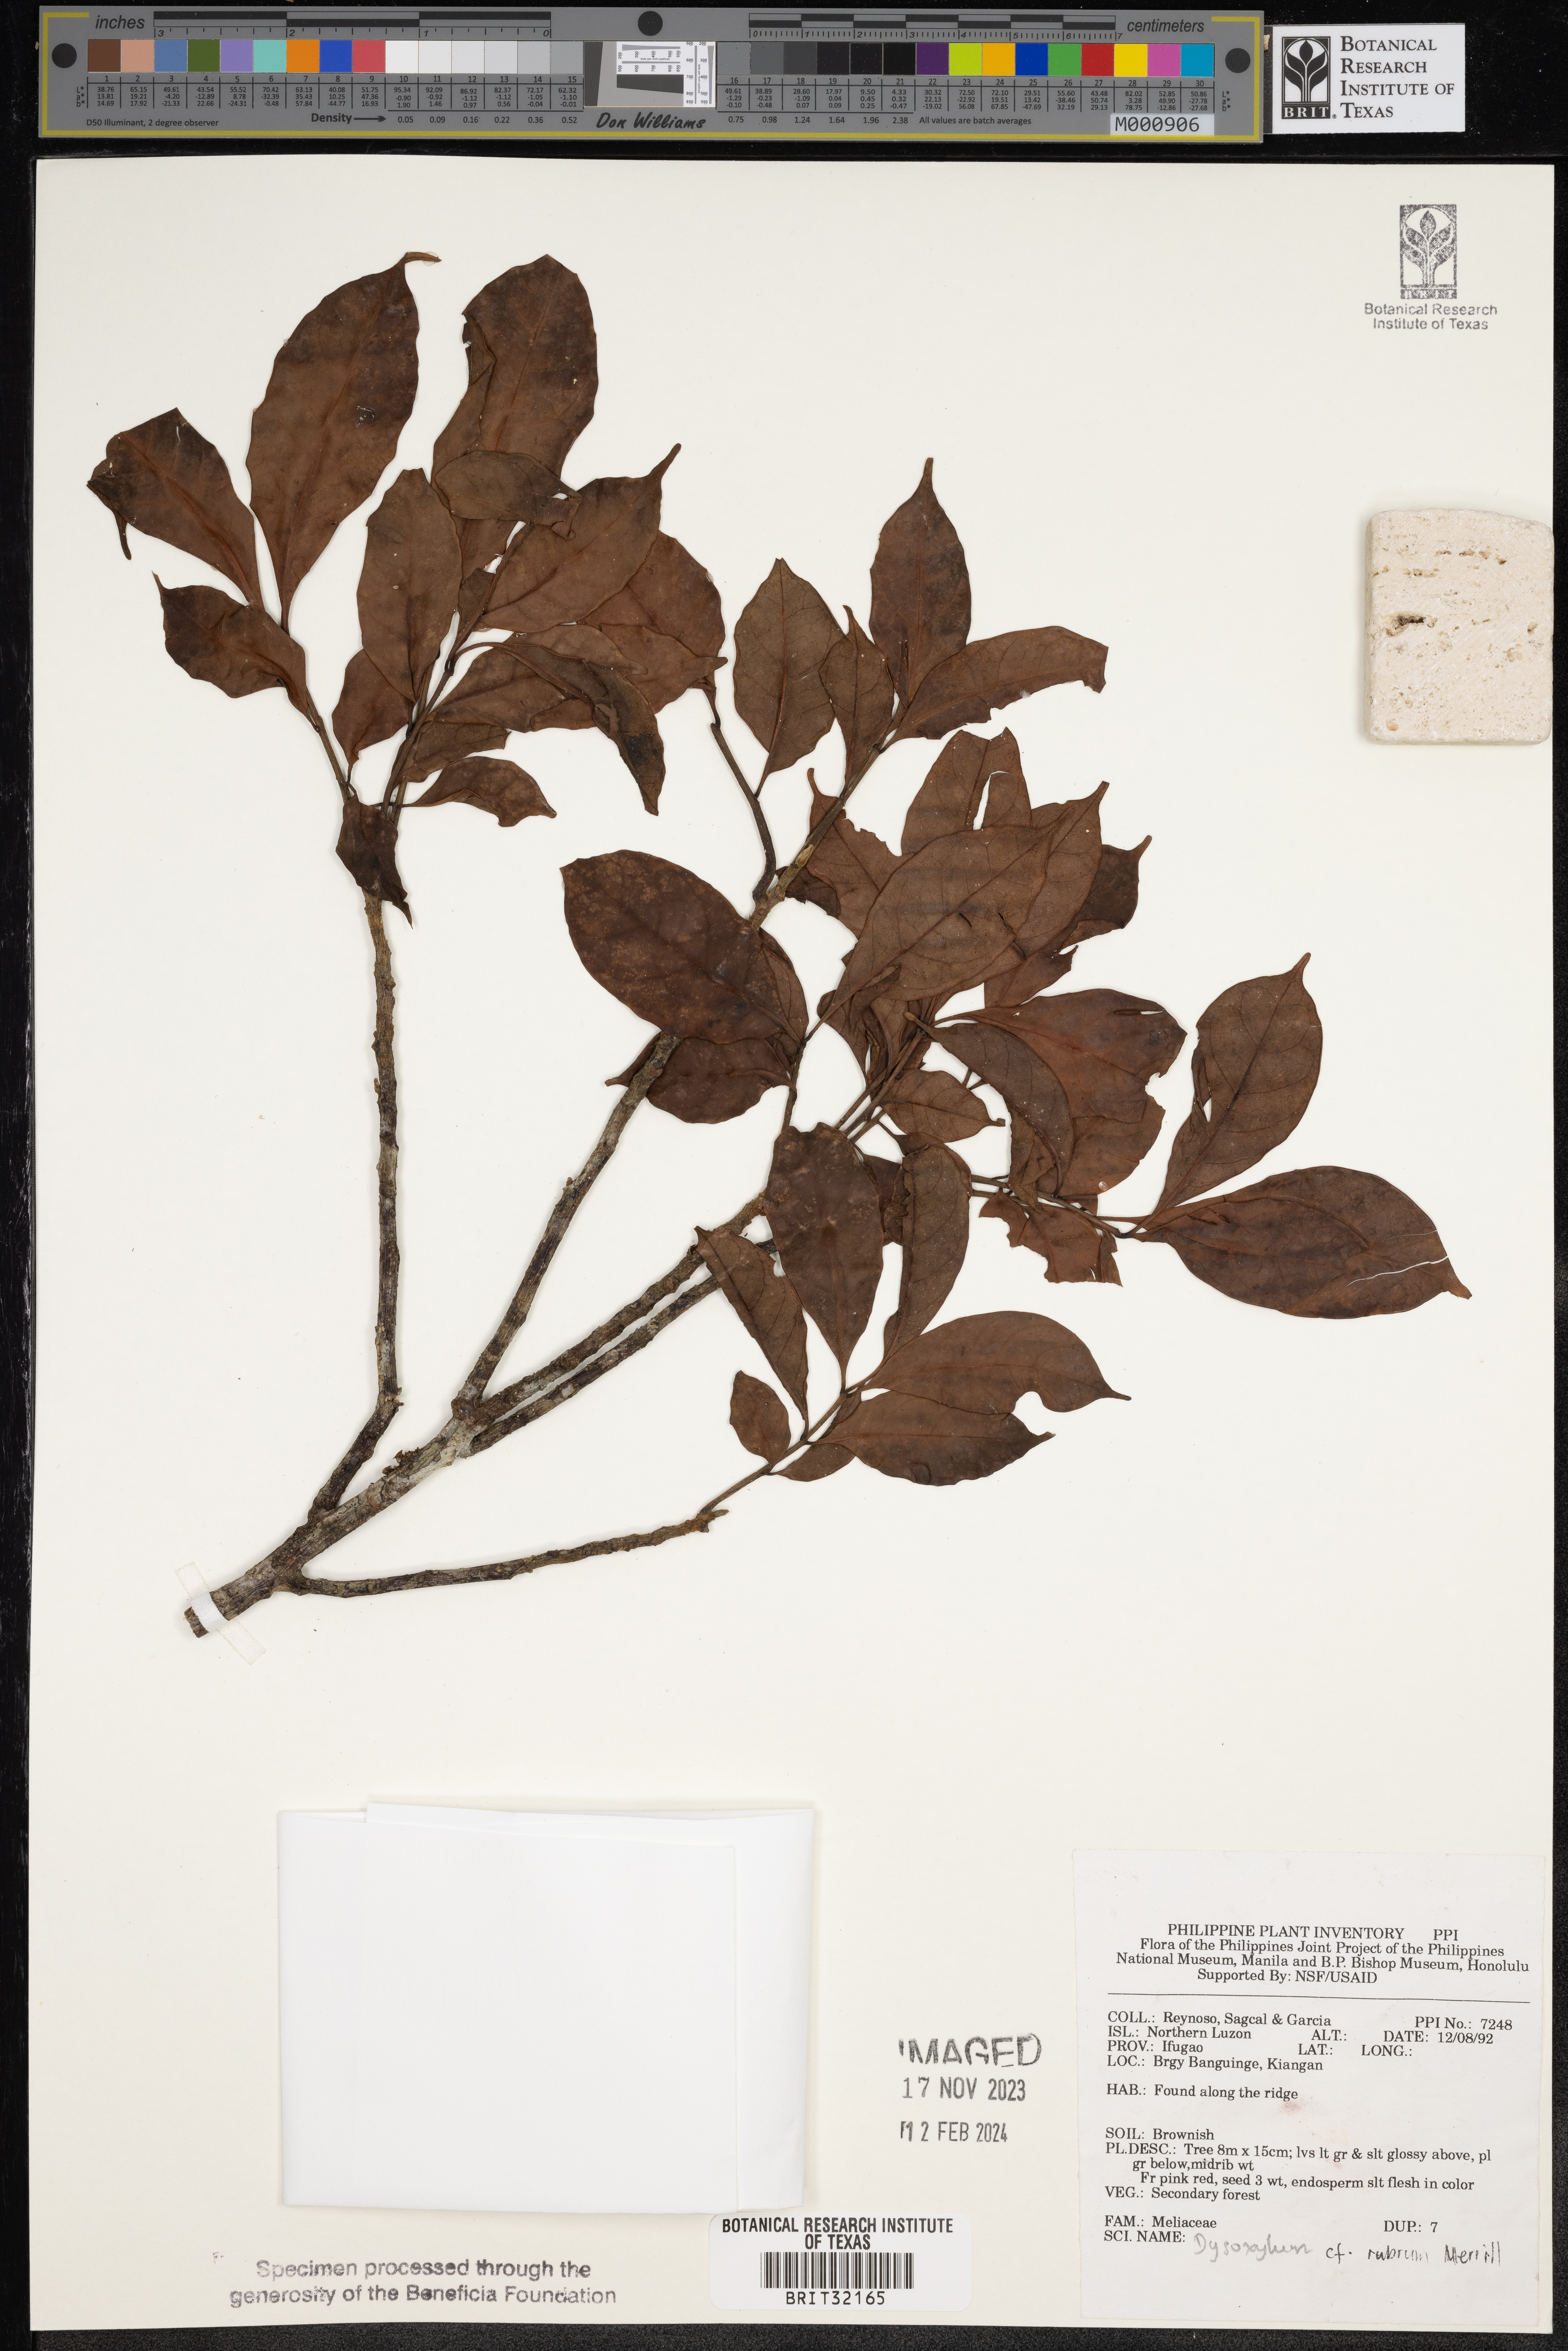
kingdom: Plantae
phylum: Tracheophyta
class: Magnoliopsida
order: Sapindales
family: Meliaceae
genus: Goniocheton
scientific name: Goniocheton arborescens
